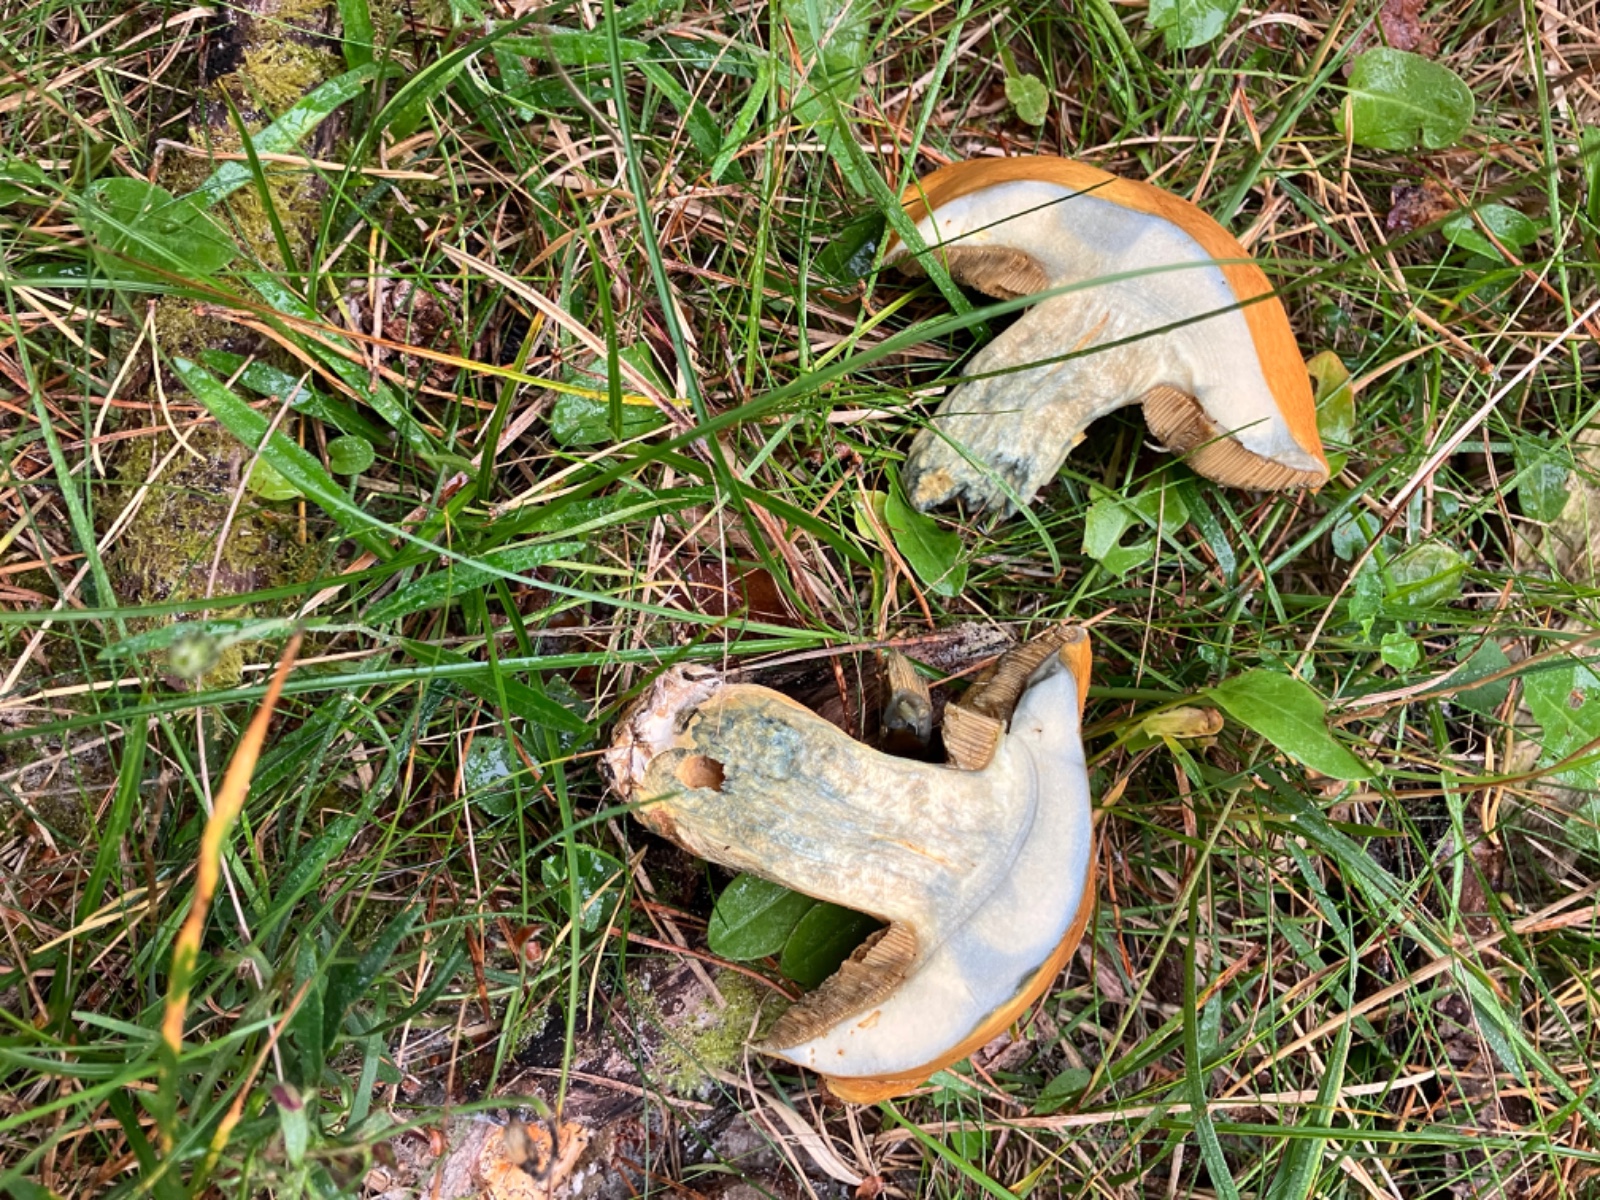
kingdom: Fungi
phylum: Basidiomycota
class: Agaricomycetes
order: Boletales
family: Suillaceae
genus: Suillus
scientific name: Suillus variegatus
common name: broget slimrørhat
